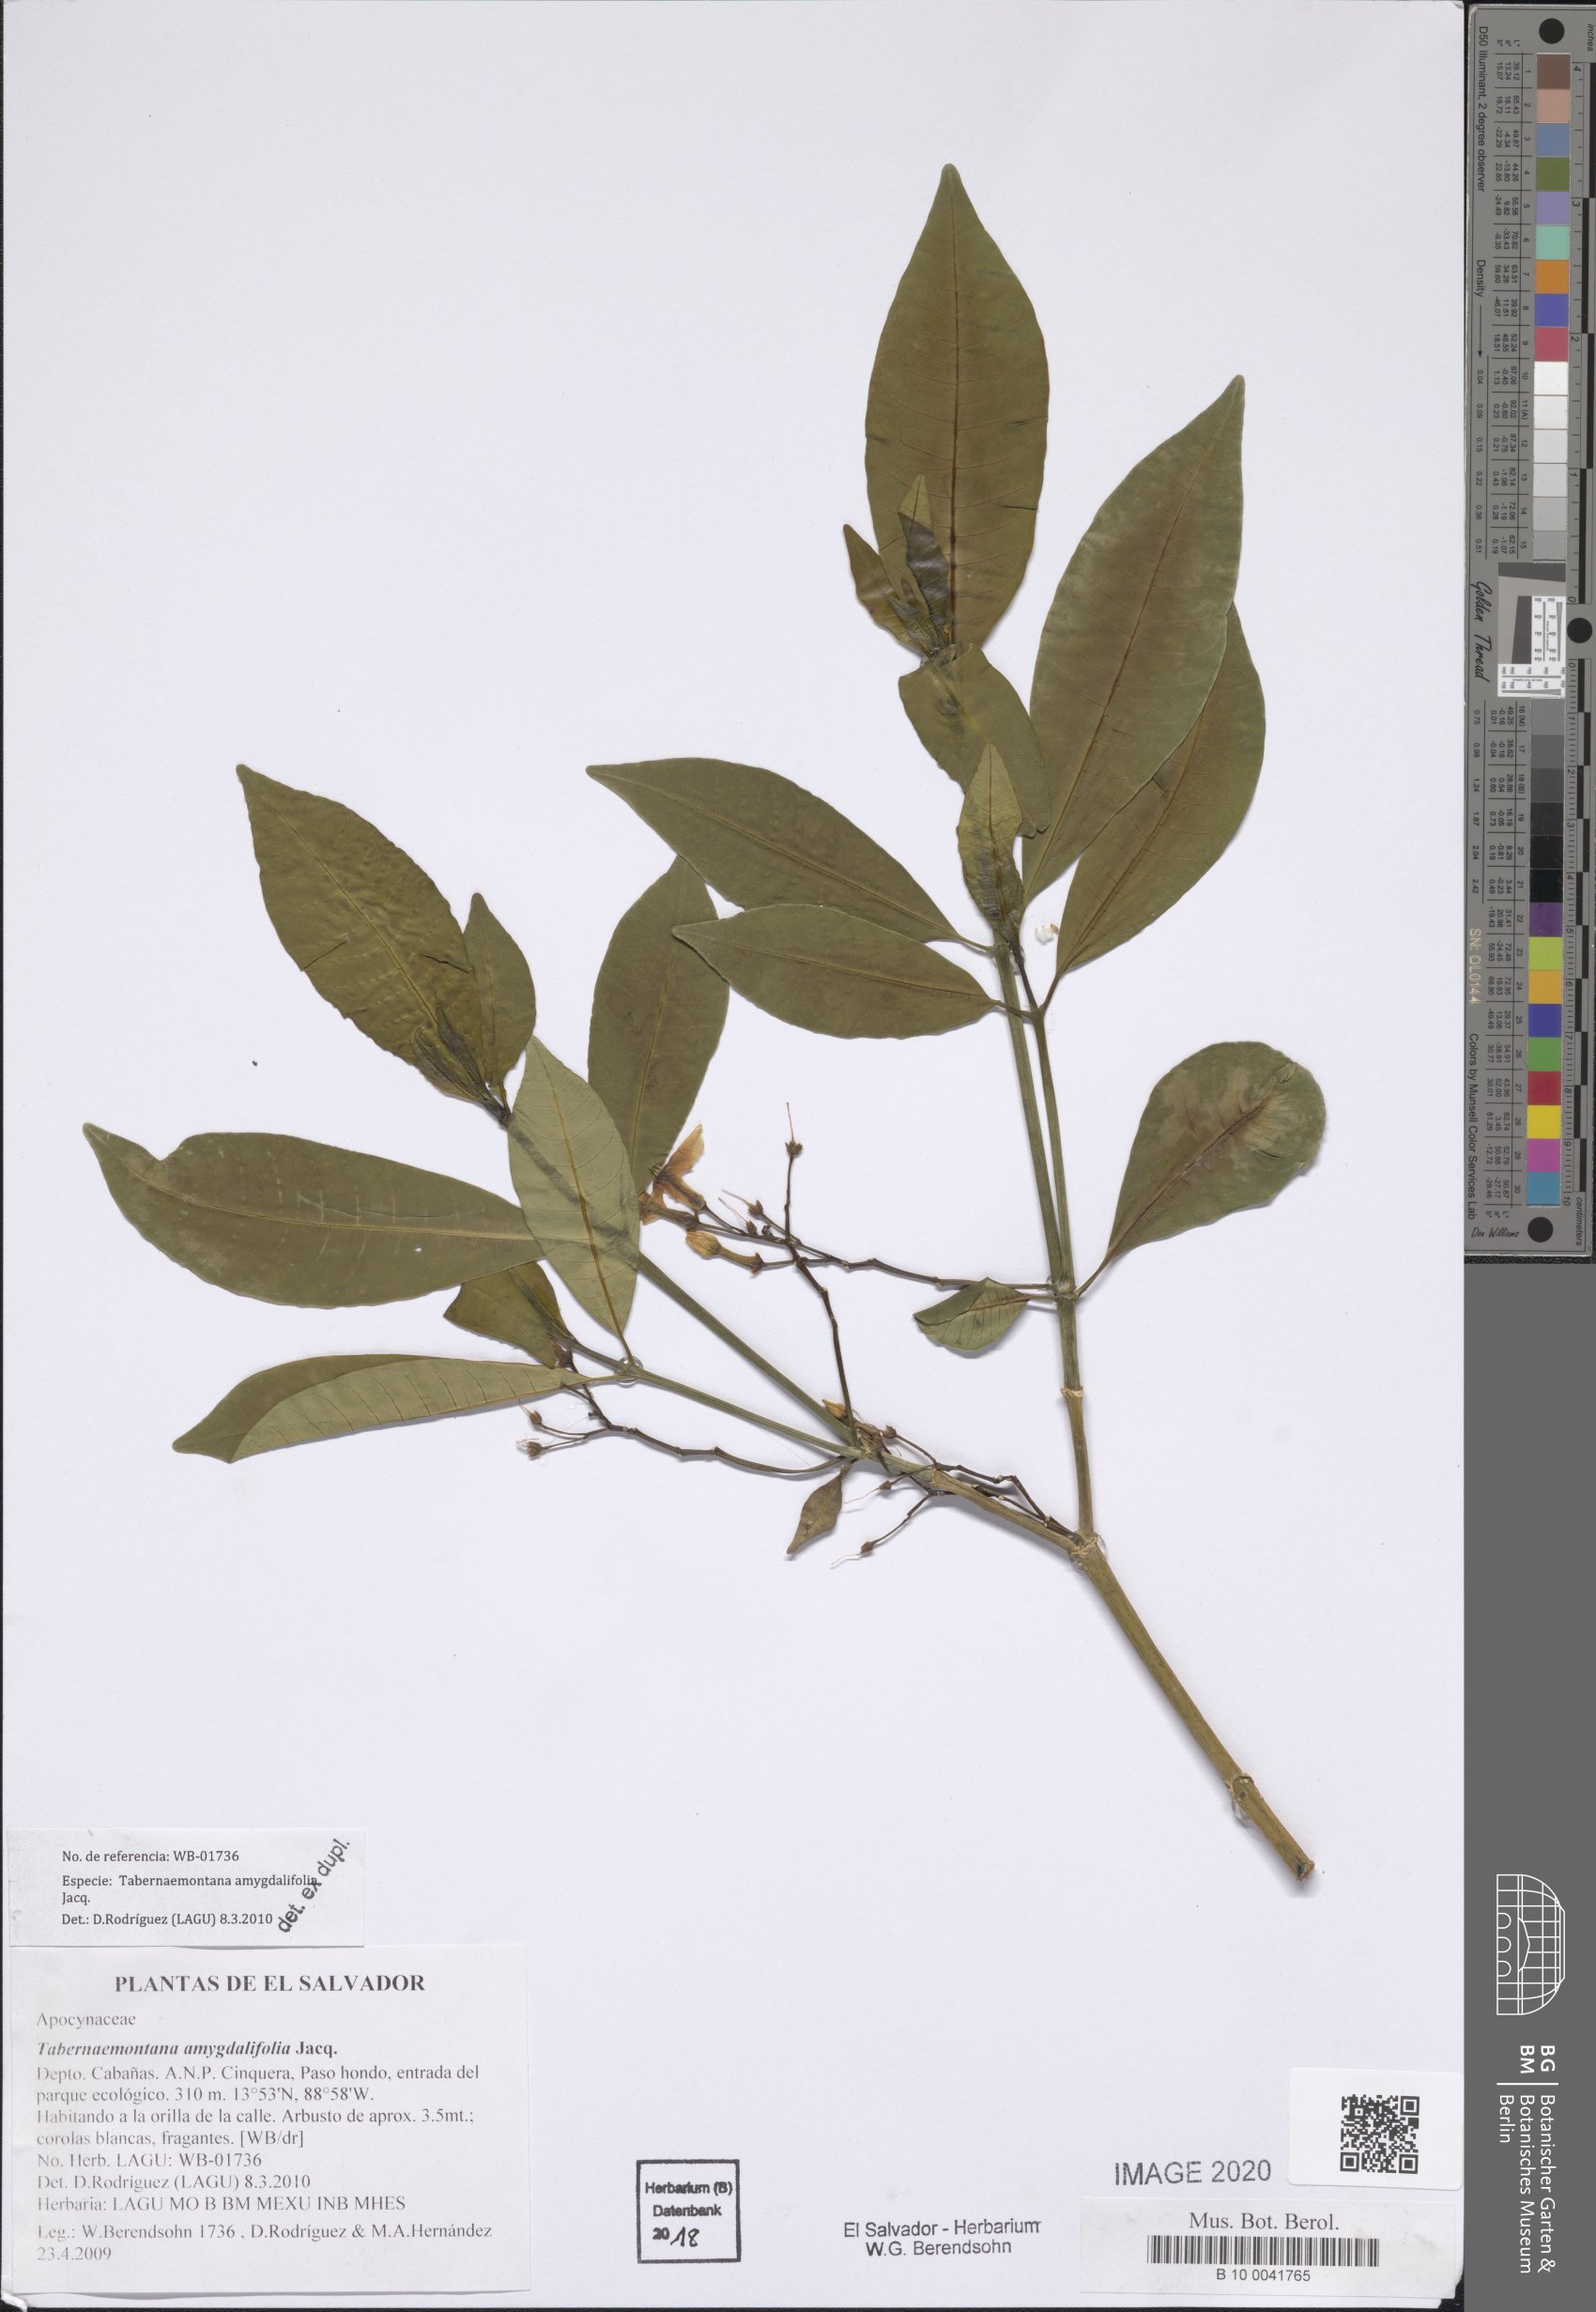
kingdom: Plantae
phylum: Tracheophyta
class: Magnoliopsida
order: Gentianales
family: Apocynaceae
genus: Tabernaemontana
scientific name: Tabernaemontana amygdalifolia
